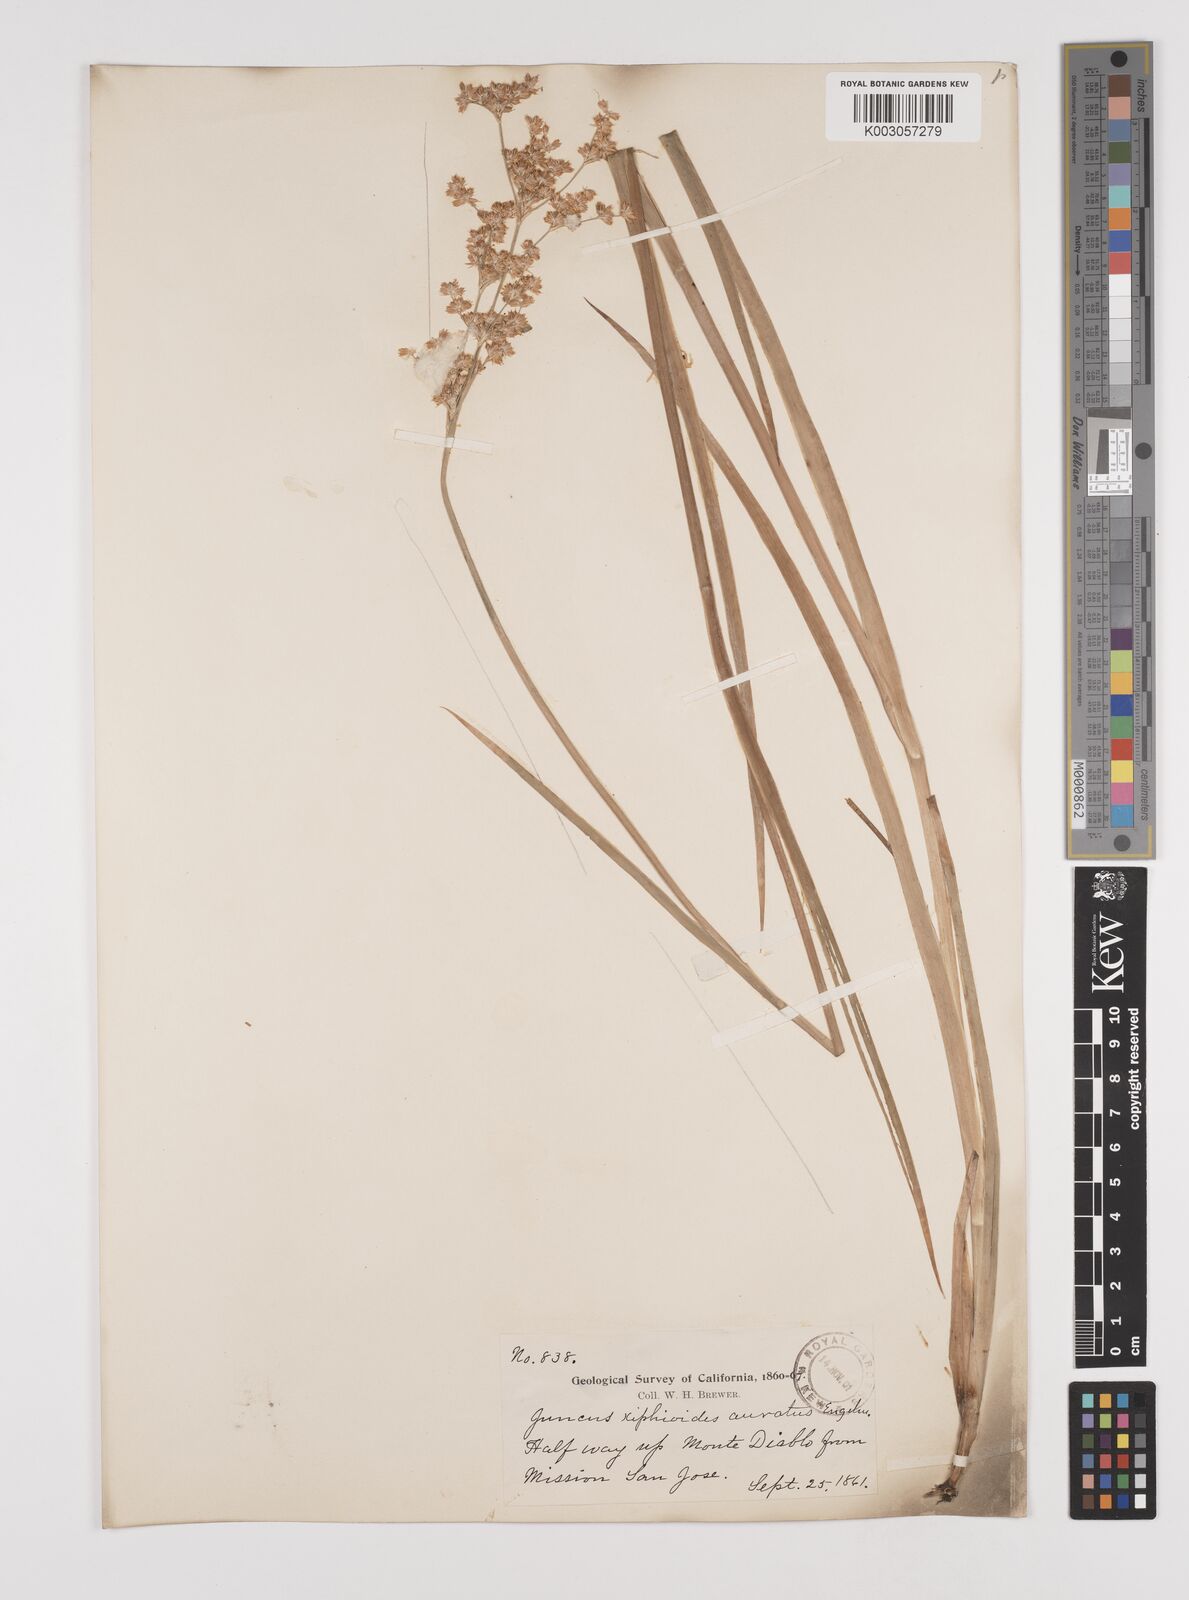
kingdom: Plantae
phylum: Tracheophyta
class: Liliopsida
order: Poales
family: Juncaceae
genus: Juncus
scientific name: Juncus xiphioides
